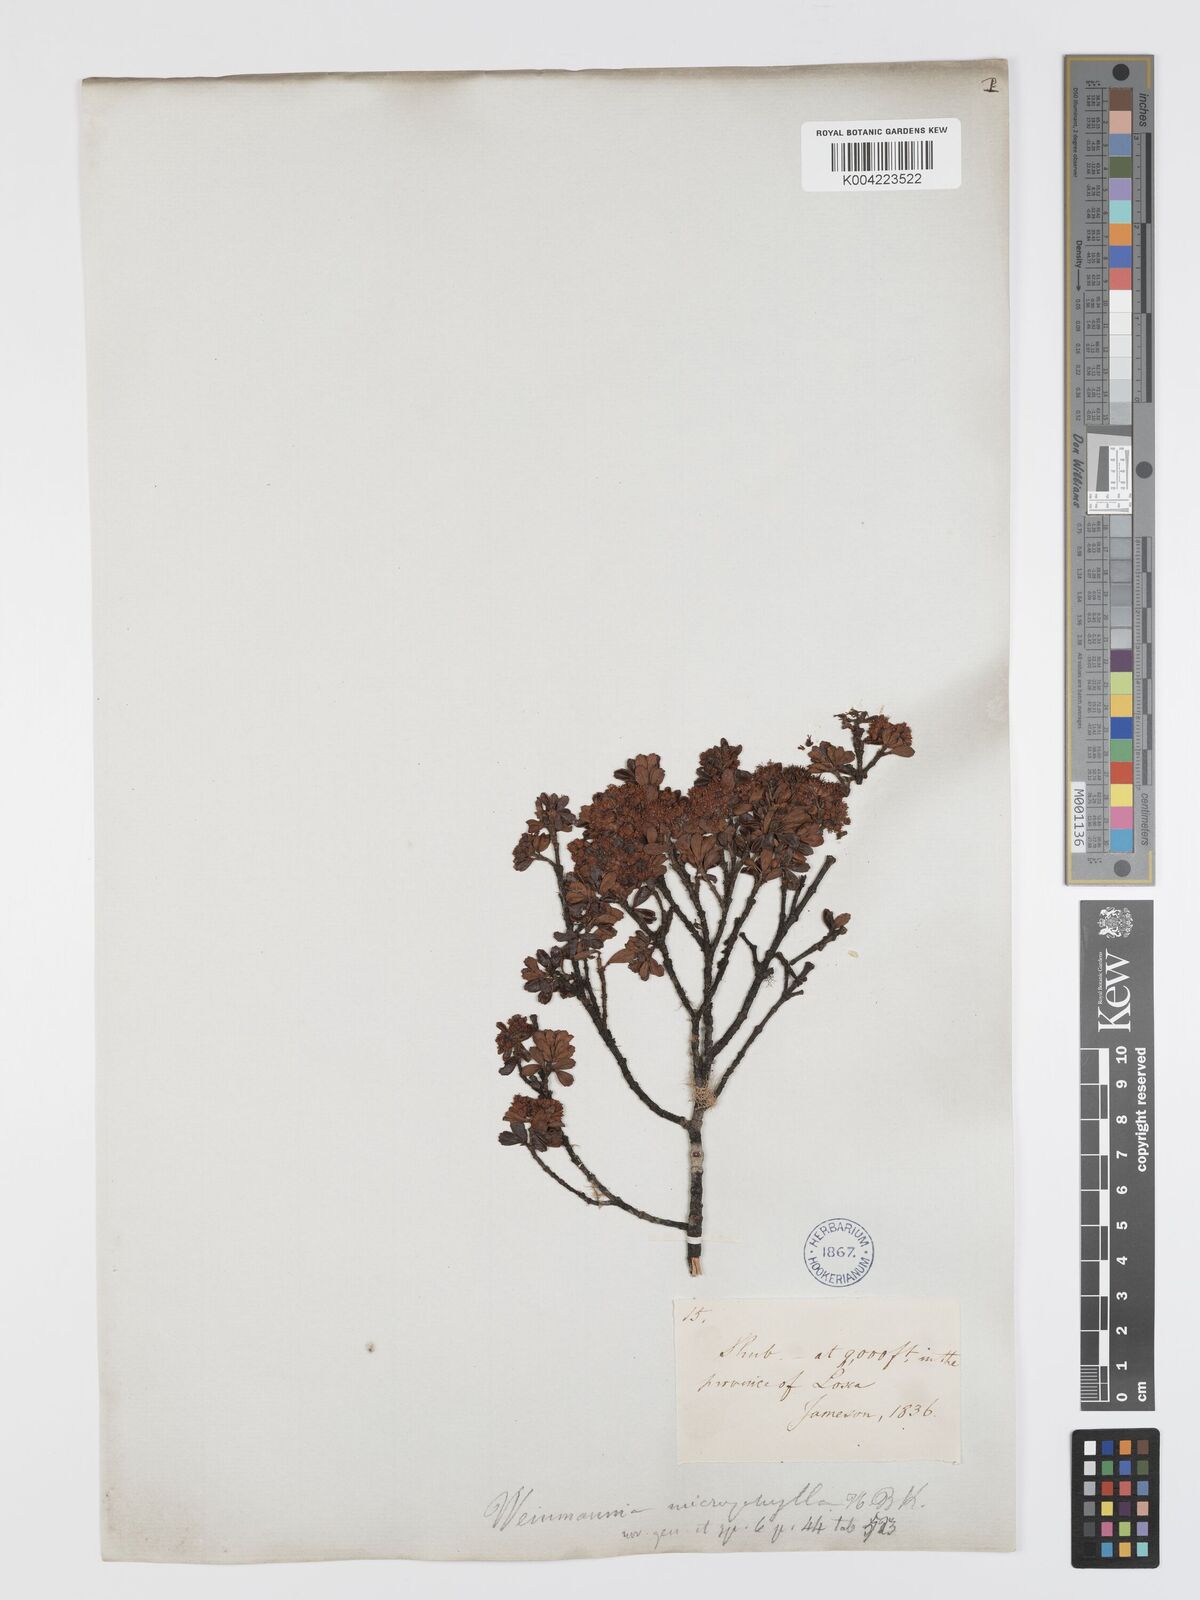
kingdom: Plantae
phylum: Tracheophyta
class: Magnoliopsida
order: Oxalidales
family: Cunoniaceae
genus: Weinmannia
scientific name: Weinmannia microphylla
